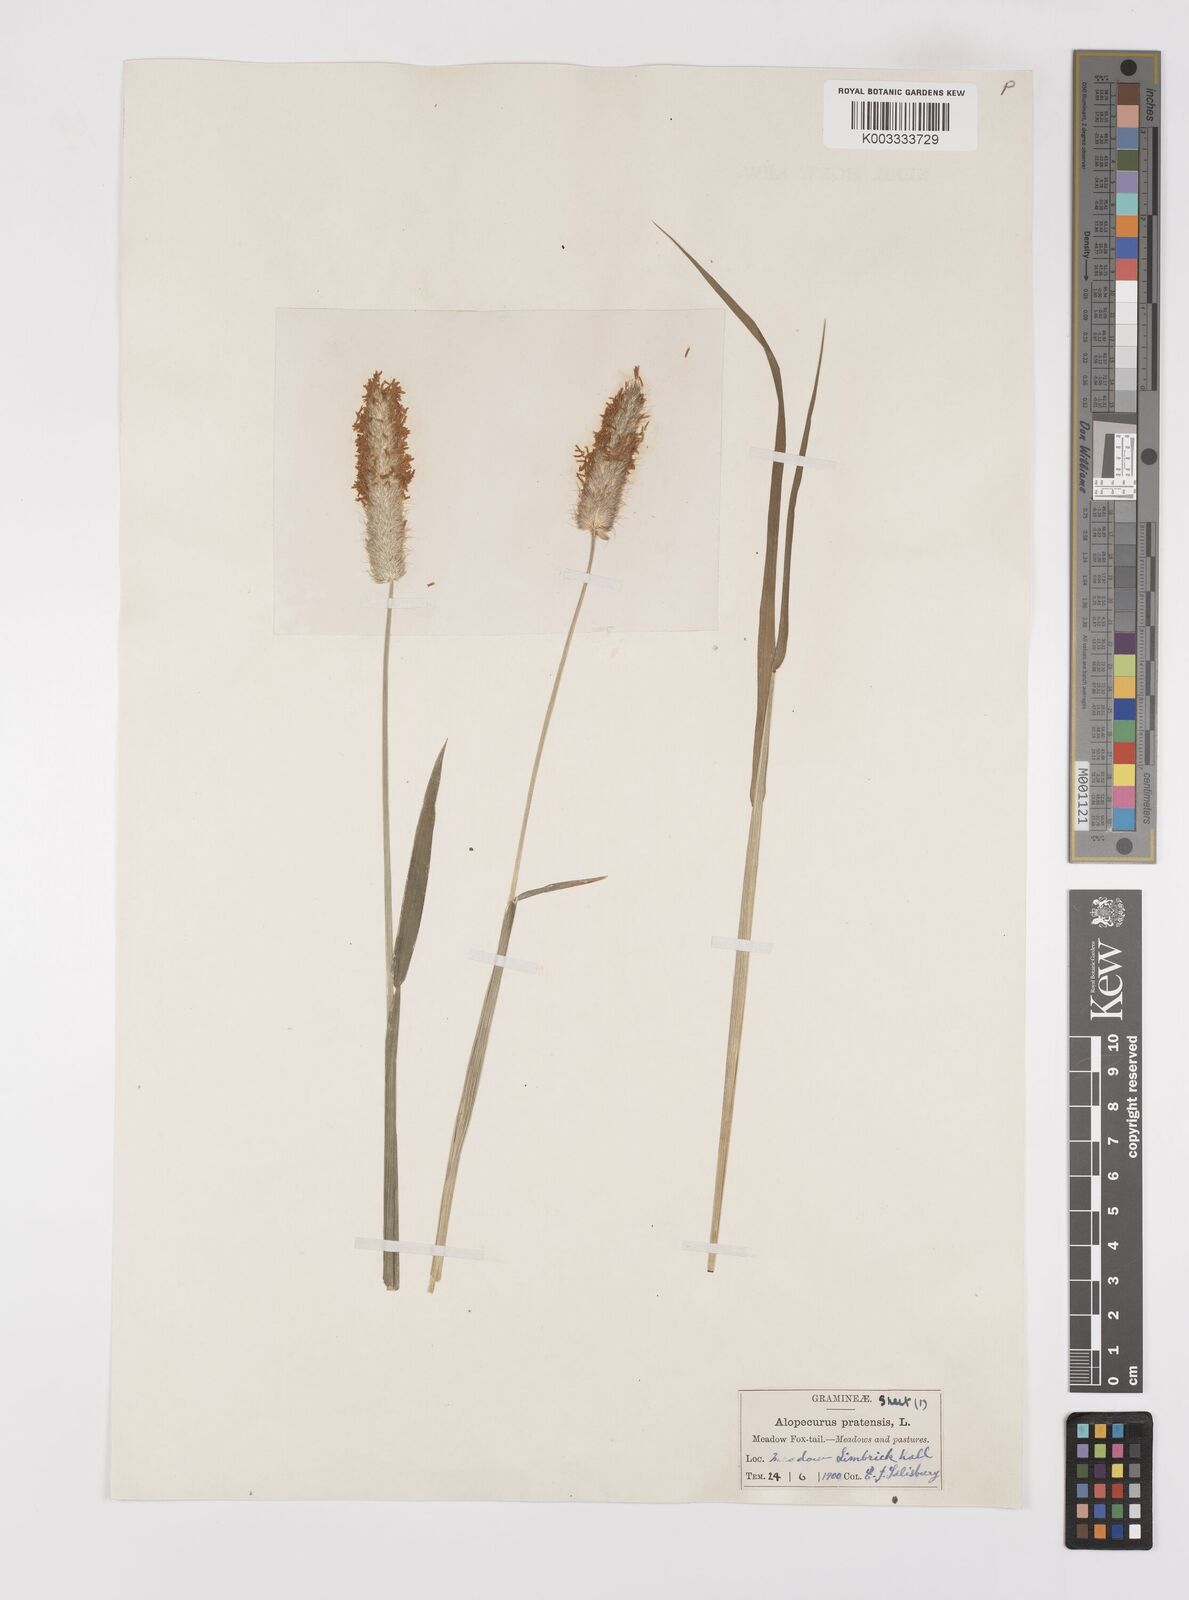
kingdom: Plantae
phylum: Tracheophyta
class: Liliopsida
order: Poales
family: Poaceae
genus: Alopecurus
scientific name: Alopecurus pratensis
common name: Meadow foxtail
